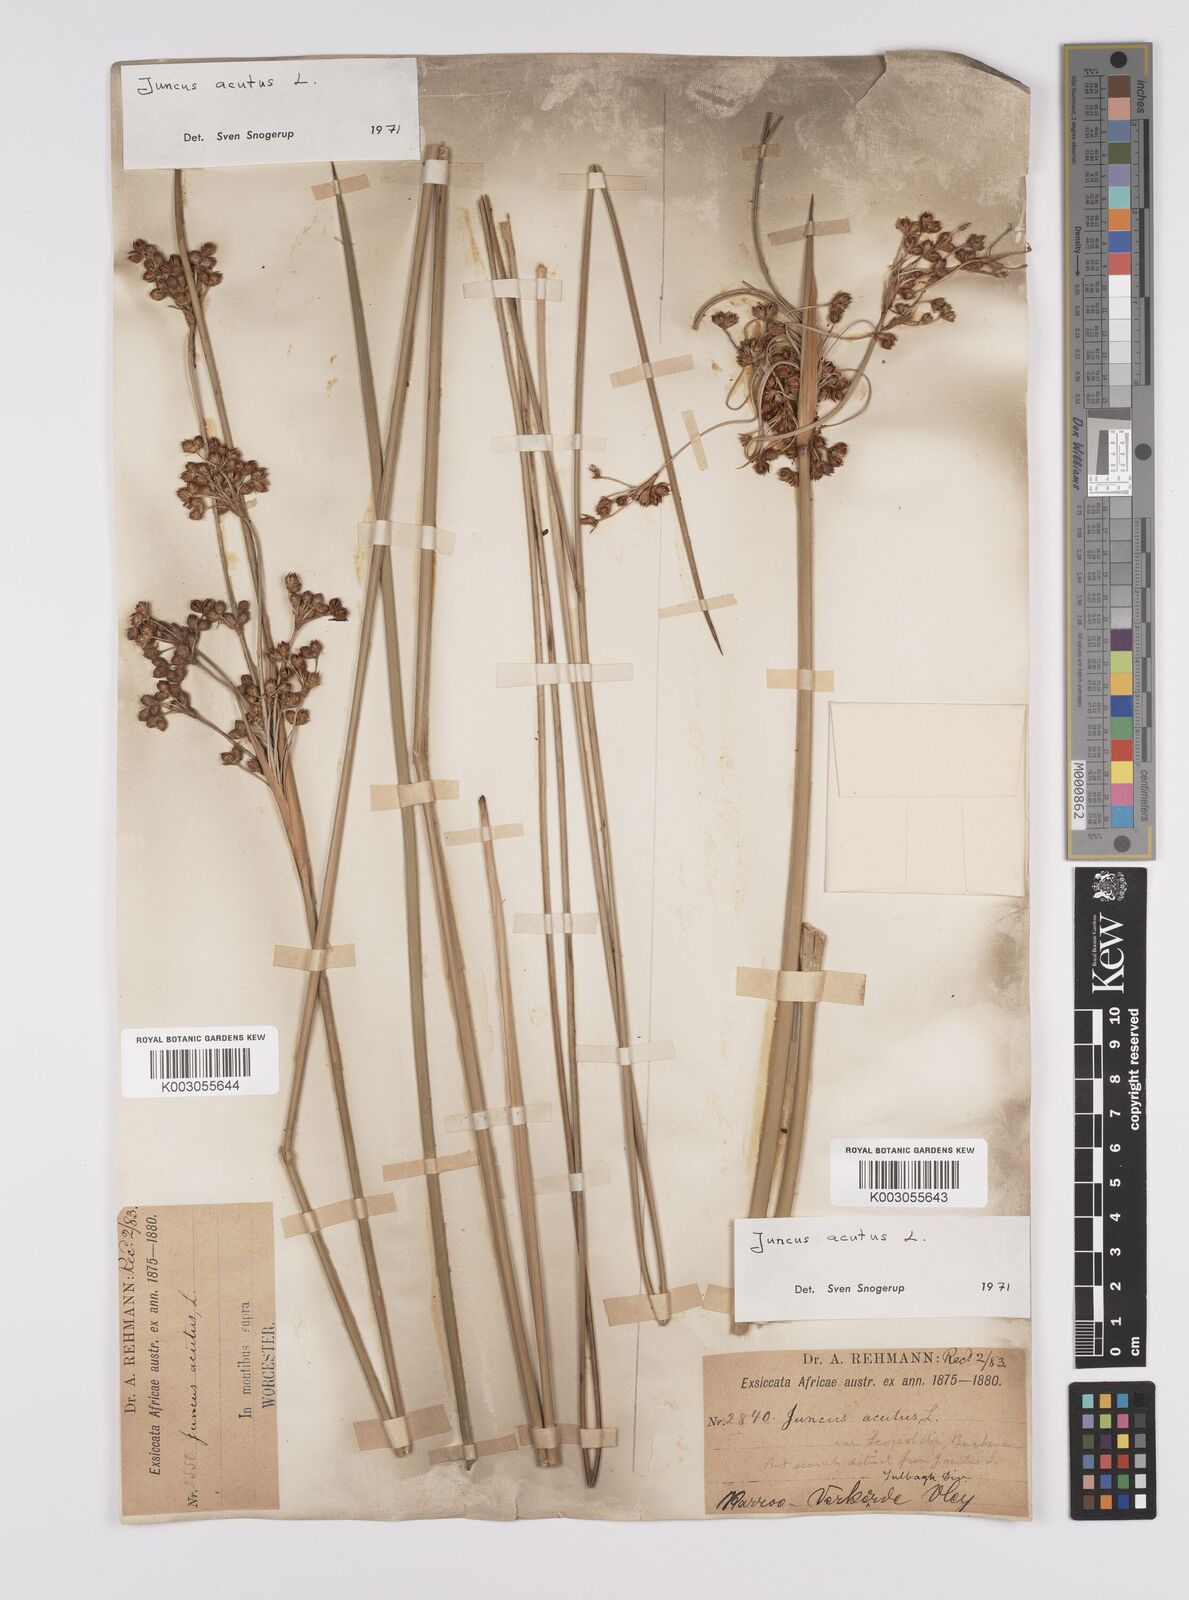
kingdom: Plantae
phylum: Tracheophyta
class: Liliopsida
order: Poales
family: Juncaceae
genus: Juncus
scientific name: Juncus acutus
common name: Sharp rush
